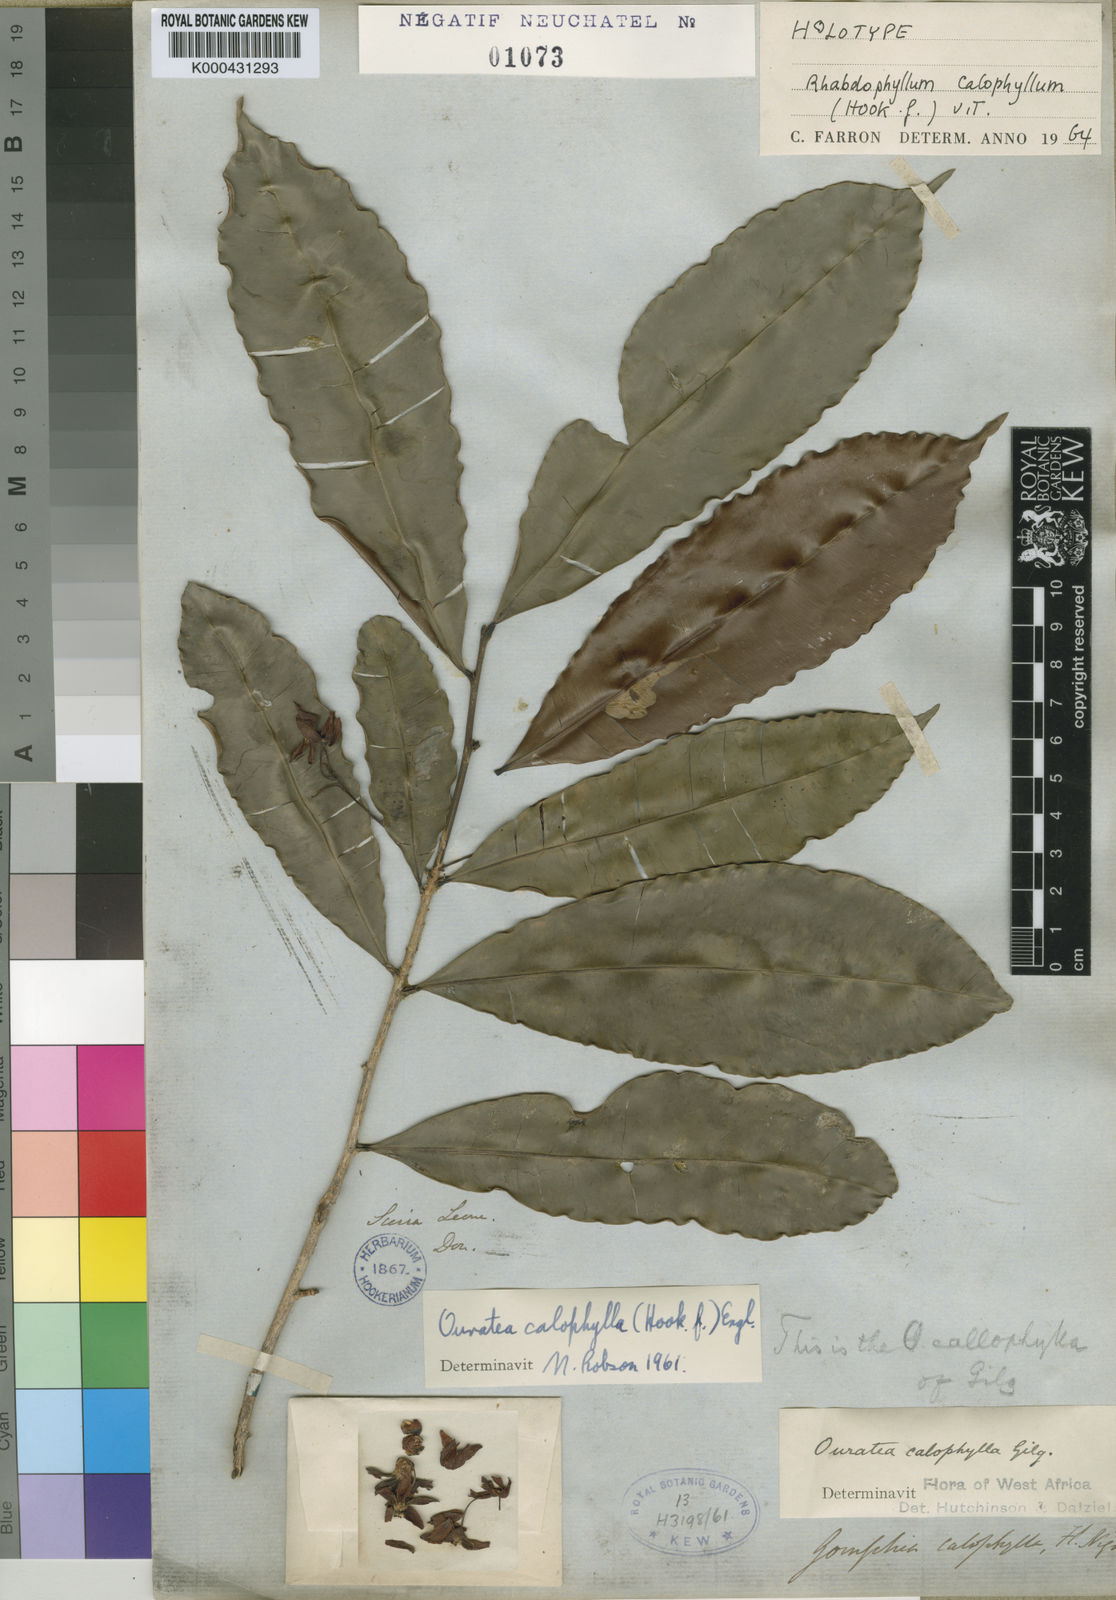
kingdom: Plantae
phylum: Tracheophyta
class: Magnoliopsida
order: Malpighiales
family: Ochnaceae
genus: Rhabdophyllum
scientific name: Rhabdophyllum calophyllum
